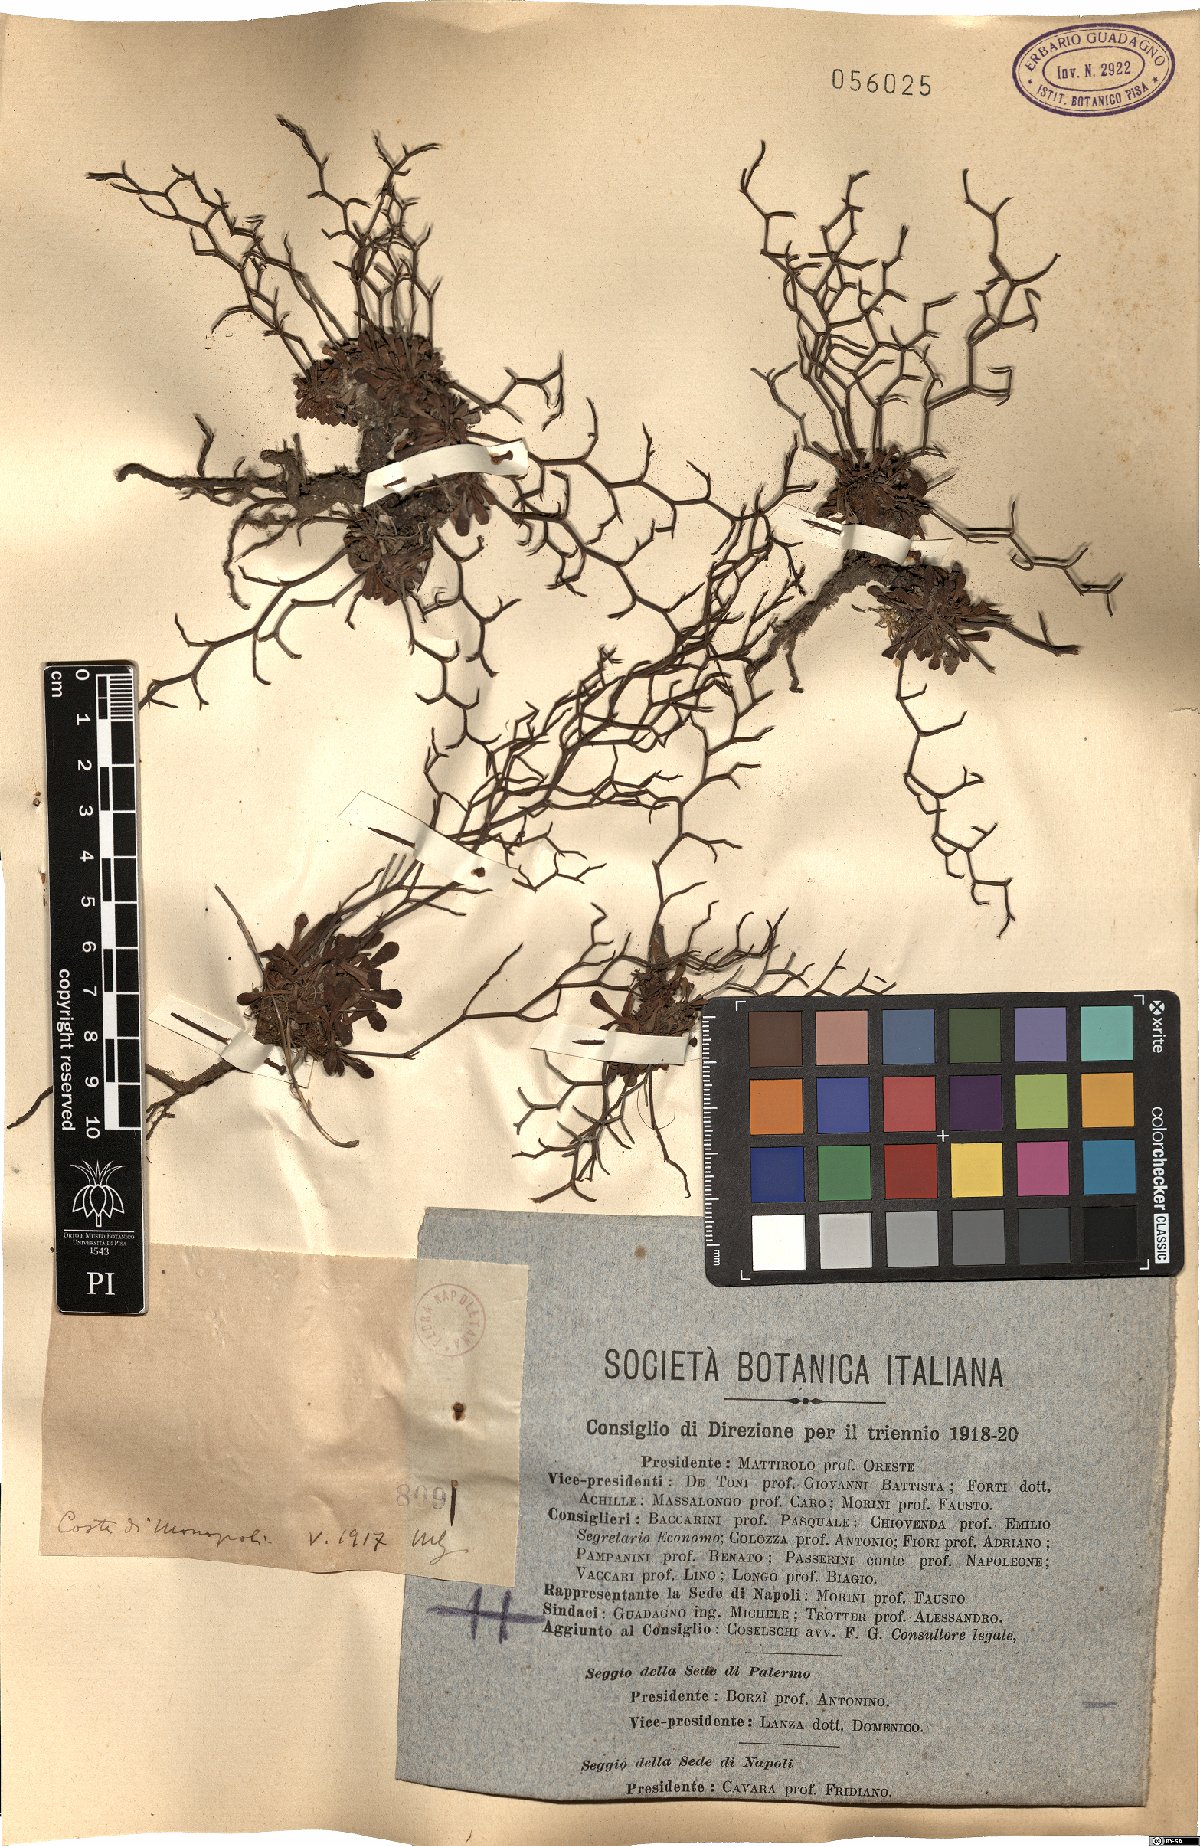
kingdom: Plantae
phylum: Tracheophyta
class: Magnoliopsida
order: Caryophyllales
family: Plumbaginaceae
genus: Limonium
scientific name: Limonium cancellatum
